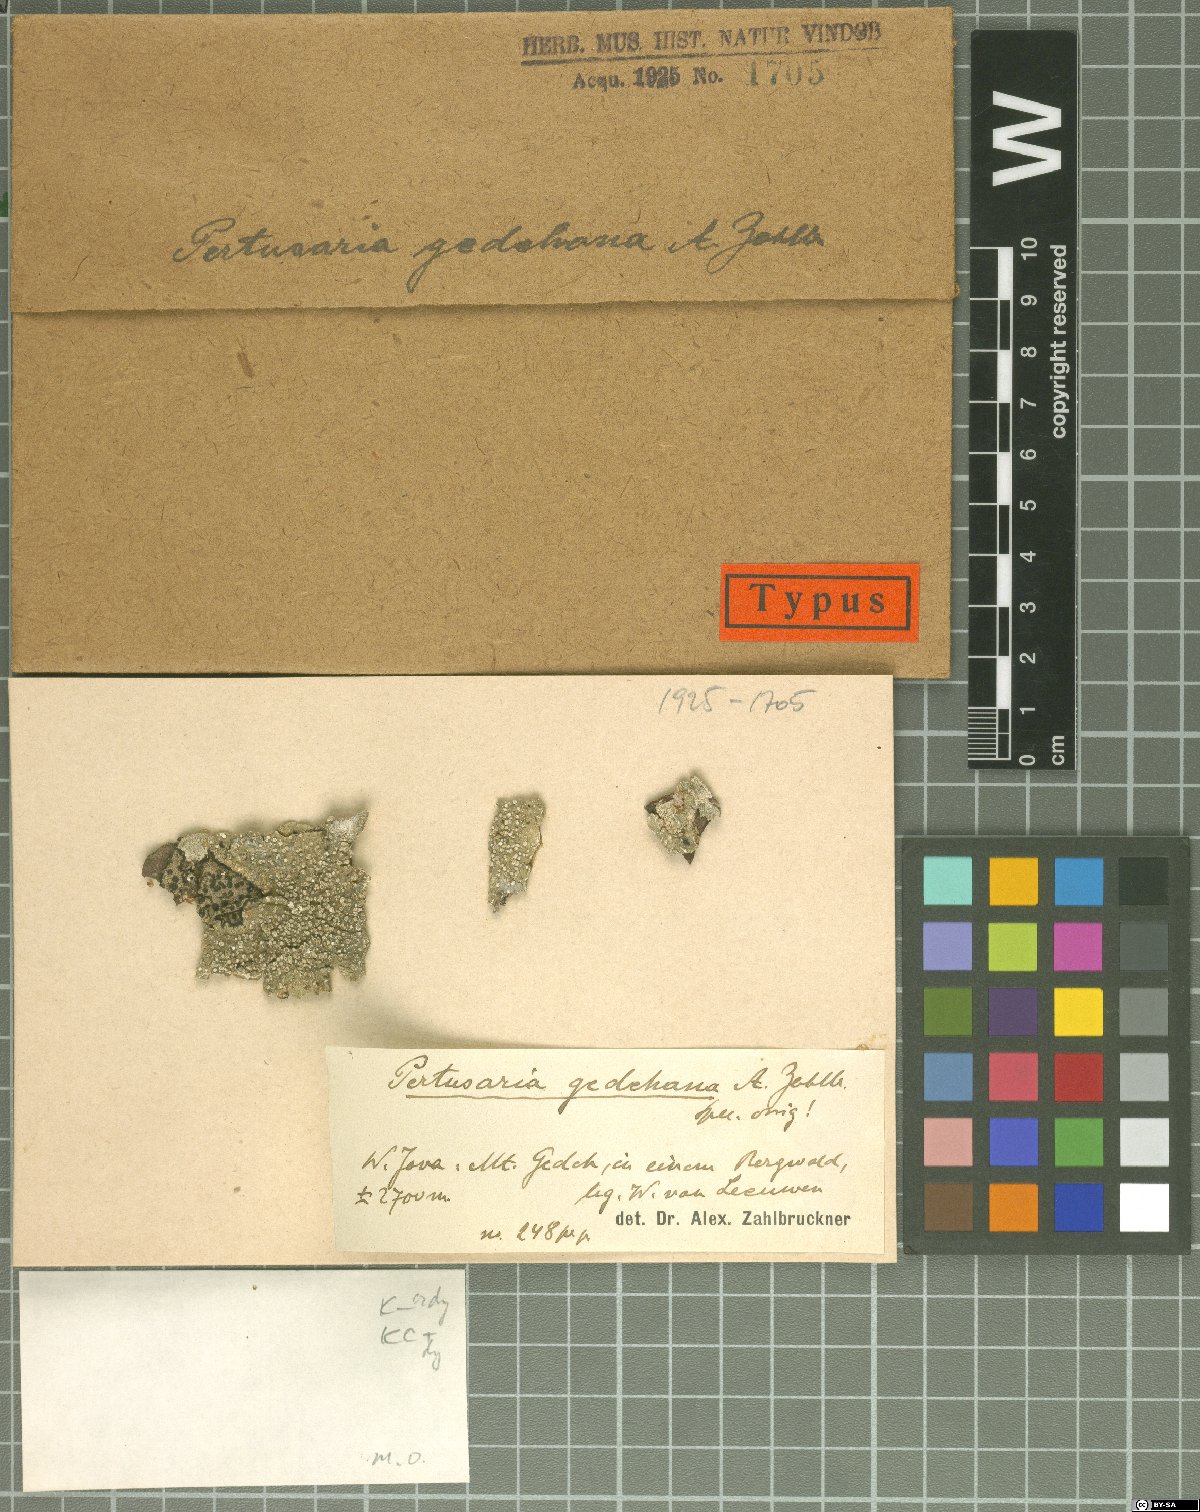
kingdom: Fungi
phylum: Ascomycota
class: Lecanoromycetes
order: Pertusariales
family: Pertusariaceae
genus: Pertusaria
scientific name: Pertusaria
